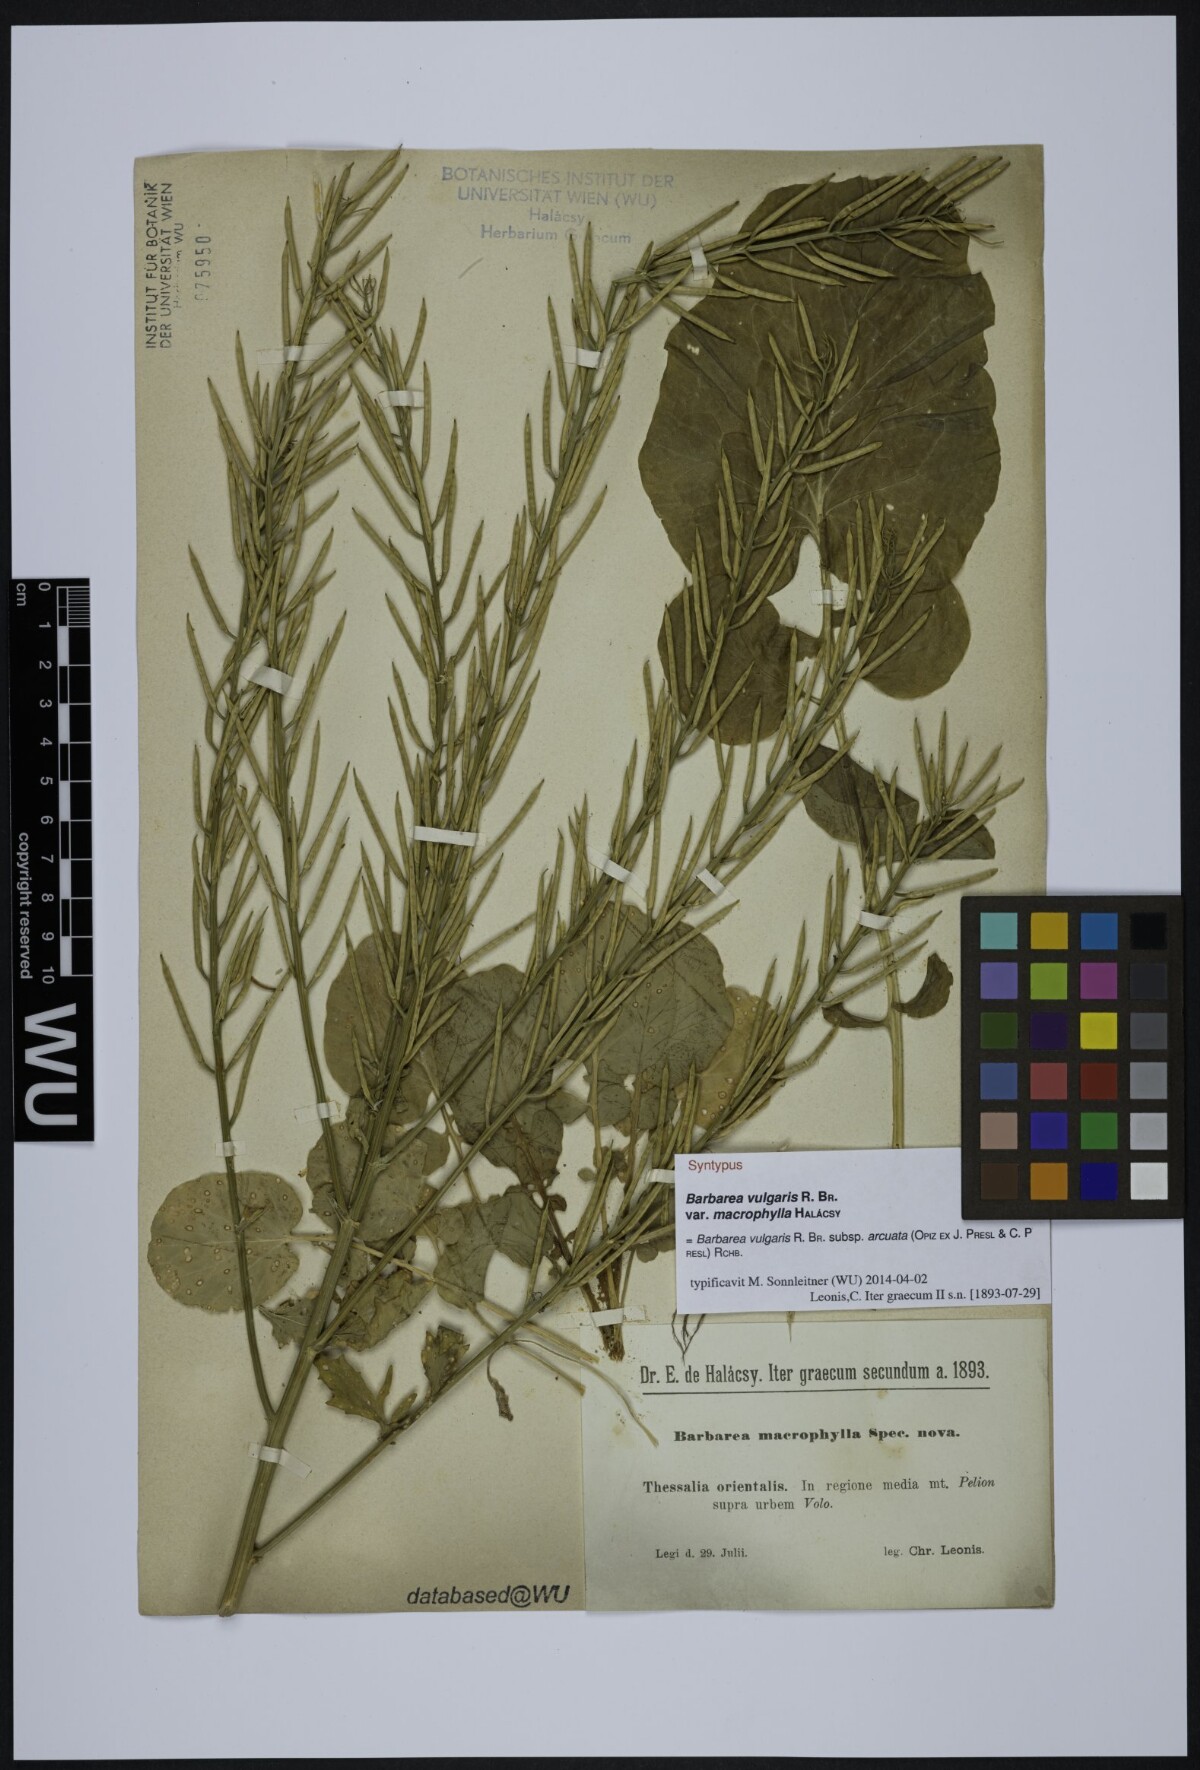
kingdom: Plantae
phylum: Tracheophyta
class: Magnoliopsida
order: Brassicales
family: Brassicaceae
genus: Barbarea
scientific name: Barbarea vulgaris
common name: Cressy-greens
